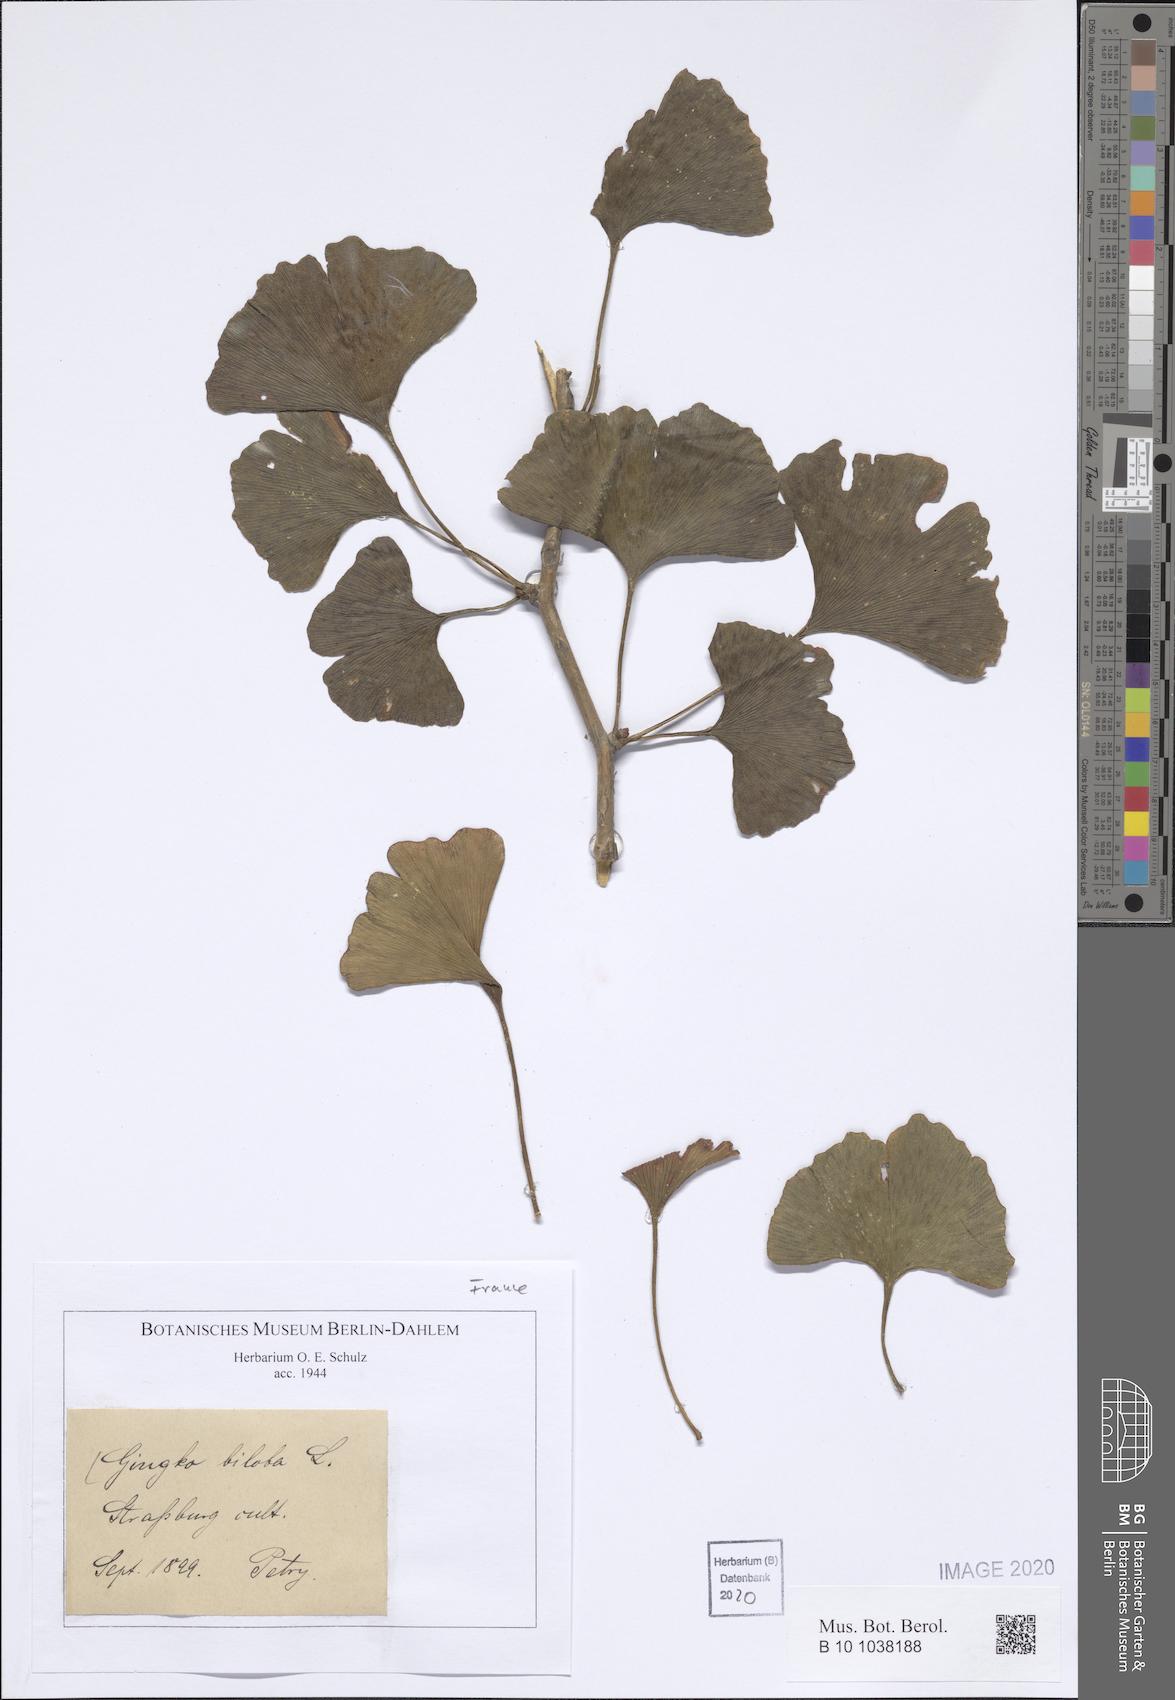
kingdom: Plantae
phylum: Tracheophyta
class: Ginkgoopsida
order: Ginkgoales
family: Ginkgoaceae
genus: Ginkgo
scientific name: Ginkgo biloba
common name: Ginkgo
